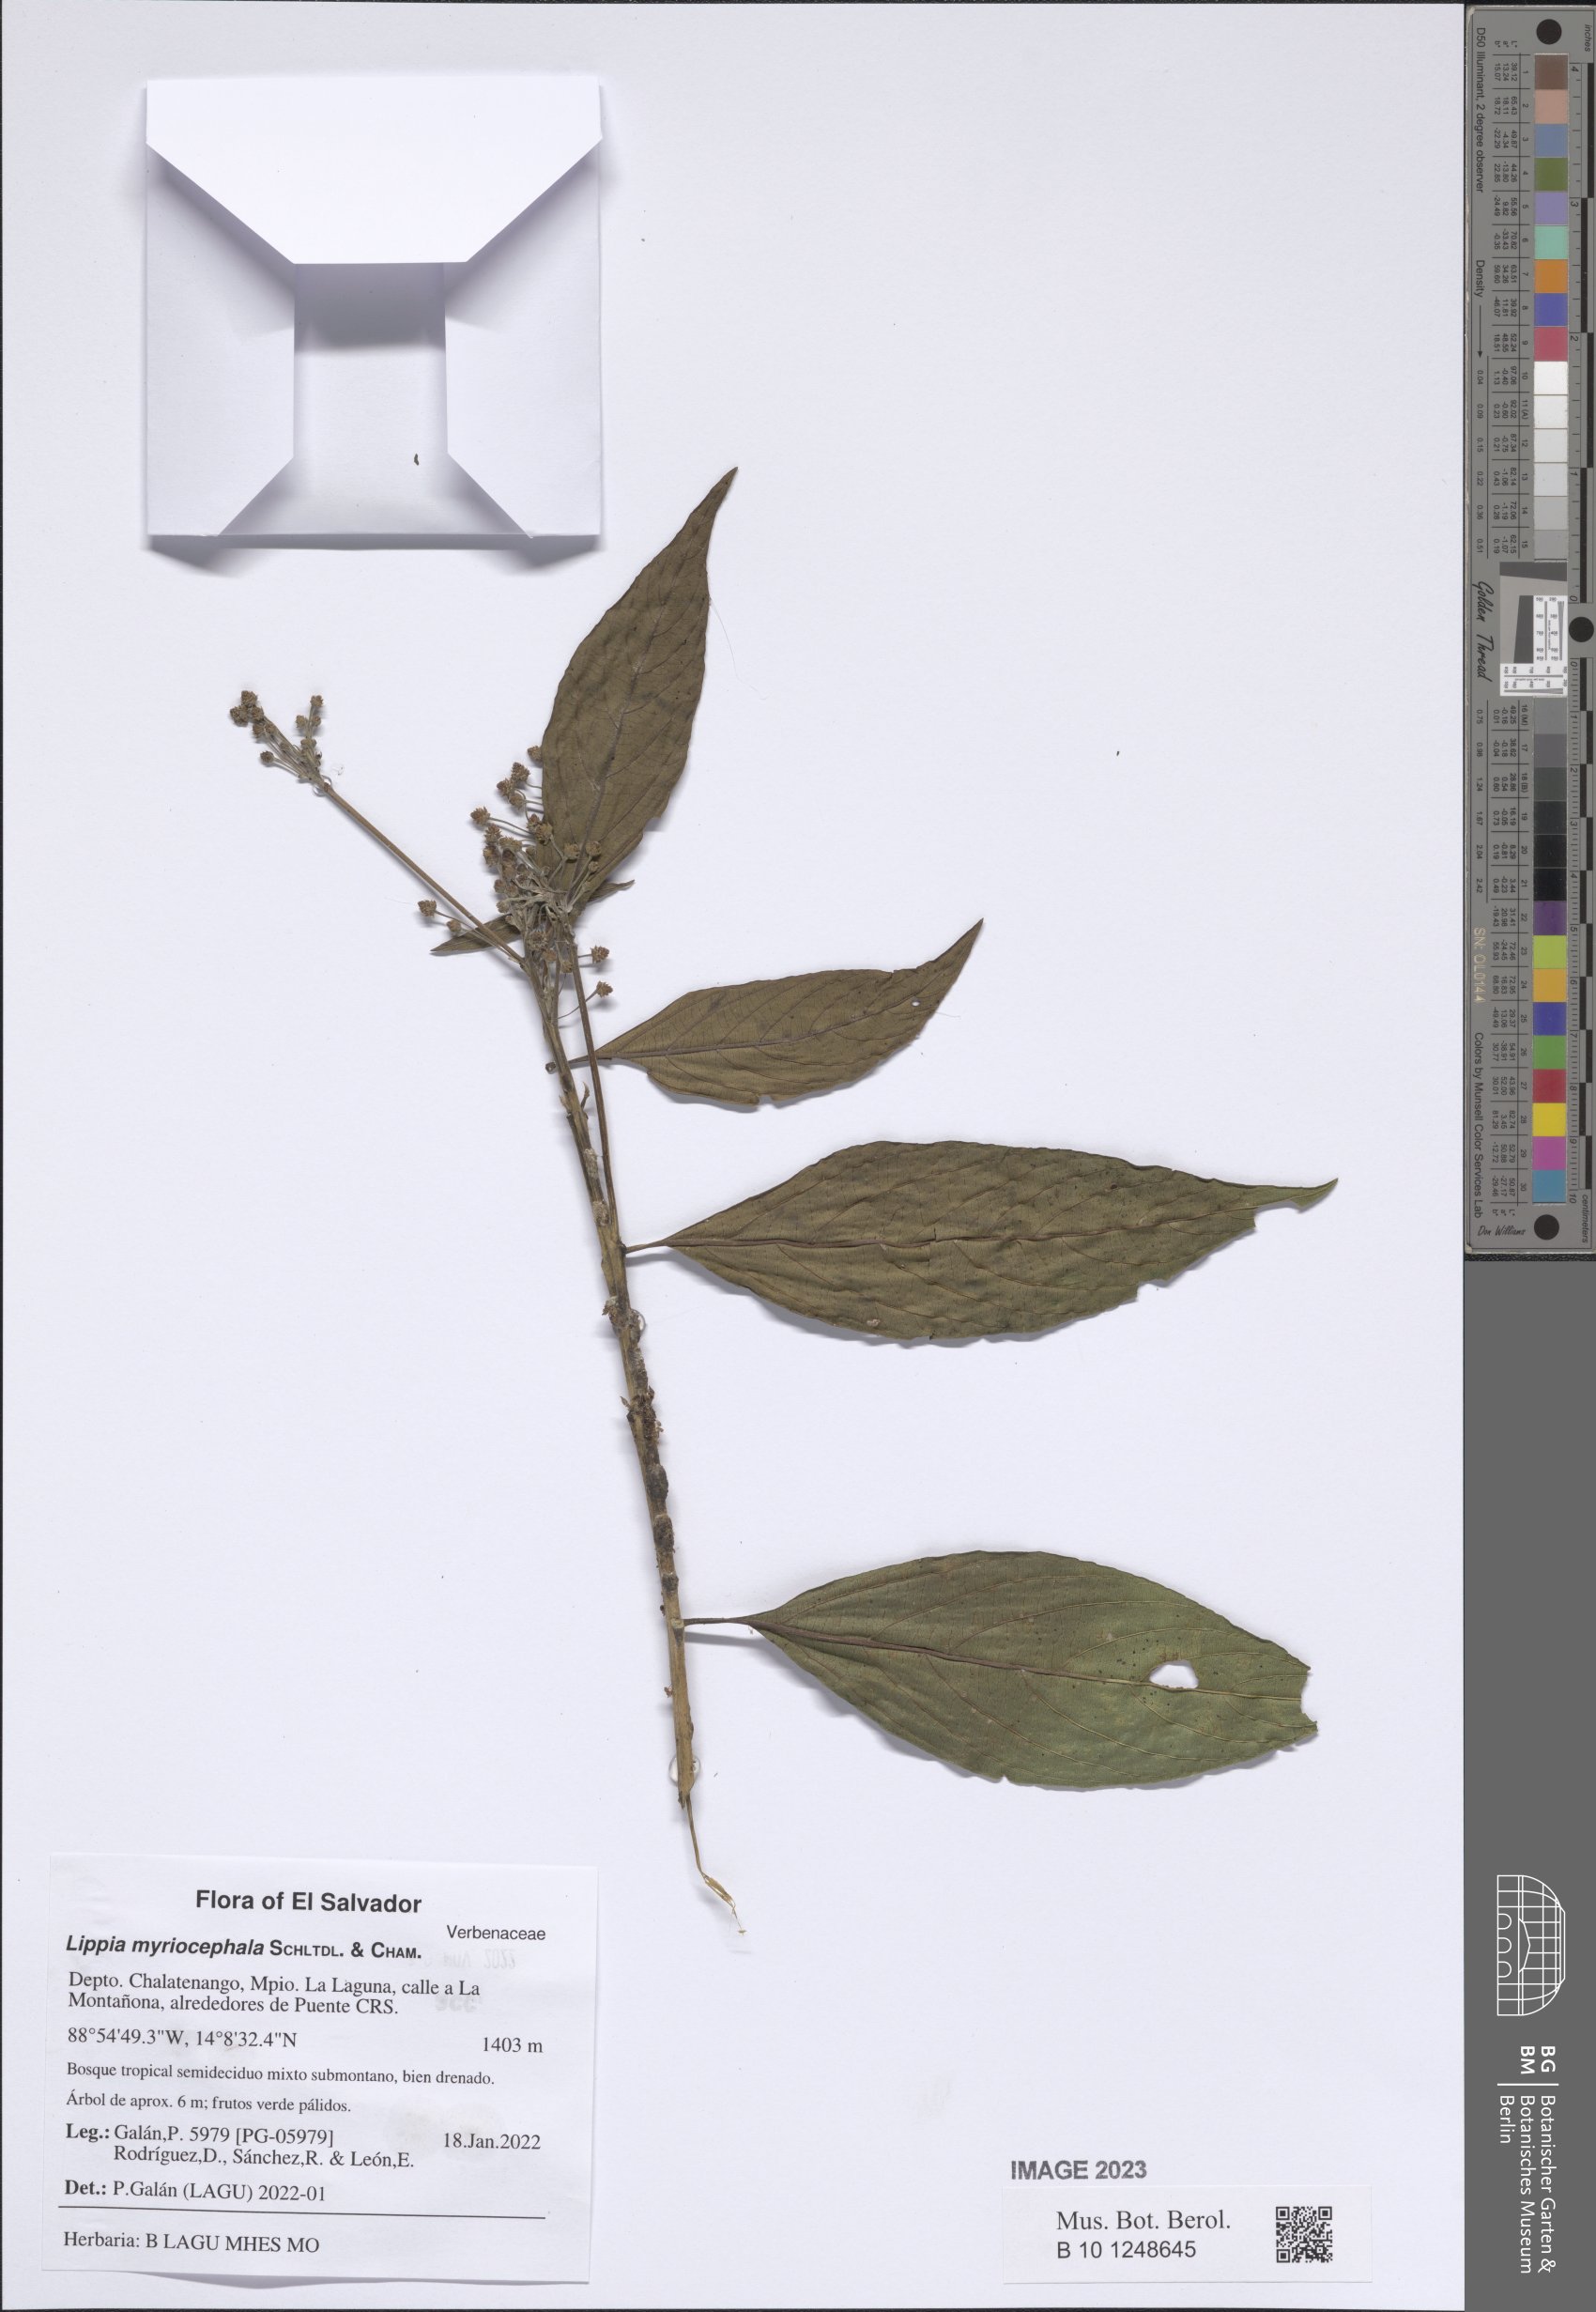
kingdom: Plantae
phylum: Tracheophyta
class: Magnoliopsida
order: Lamiales
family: Verbenaceae
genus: Lippia
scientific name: Lippia myriocephala
